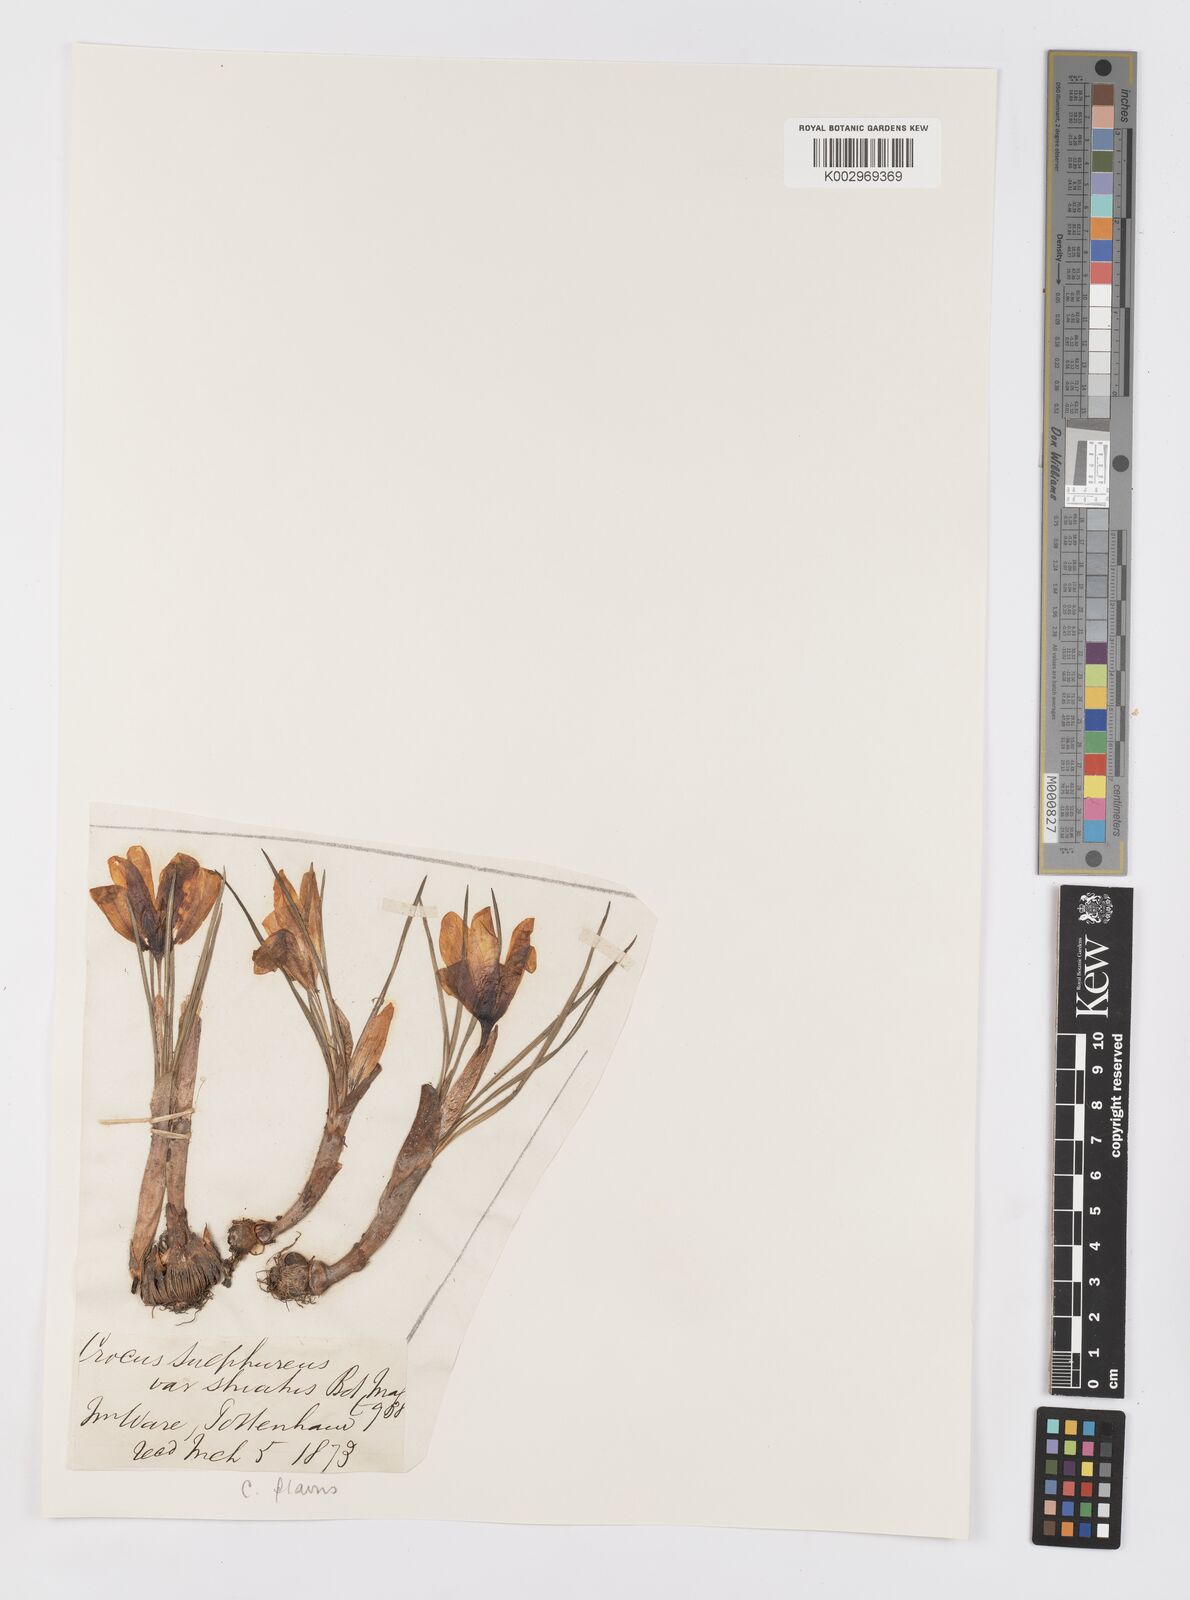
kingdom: Plantae
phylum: Tracheophyta
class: Liliopsida
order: Asparagales
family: Iridaceae
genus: Crocus
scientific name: Crocus flavus
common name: Yellow crocus
